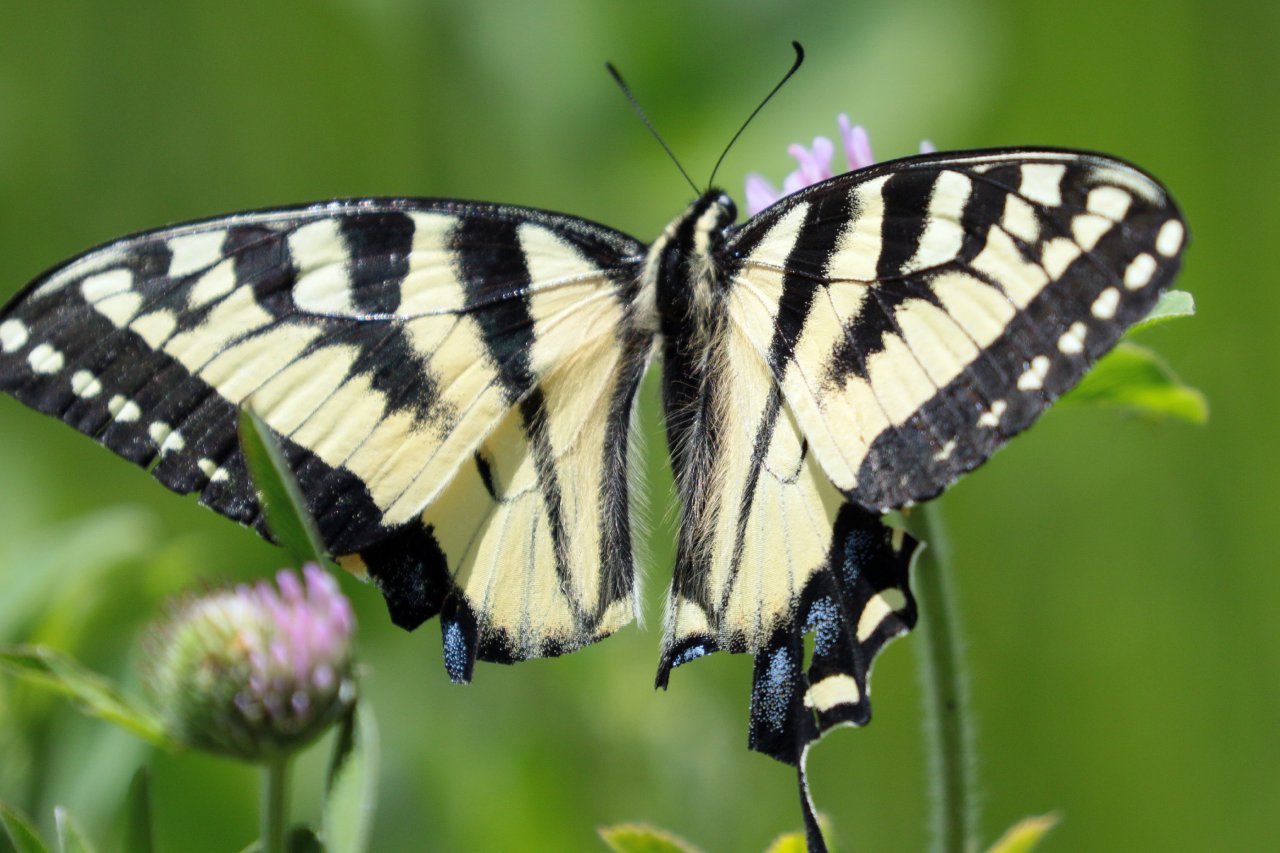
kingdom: Animalia
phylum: Arthropoda
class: Insecta
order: Lepidoptera
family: Papilionidae
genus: Pterourus
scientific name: Pterourus canadensis
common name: Canadian Tiger Swallowtail
